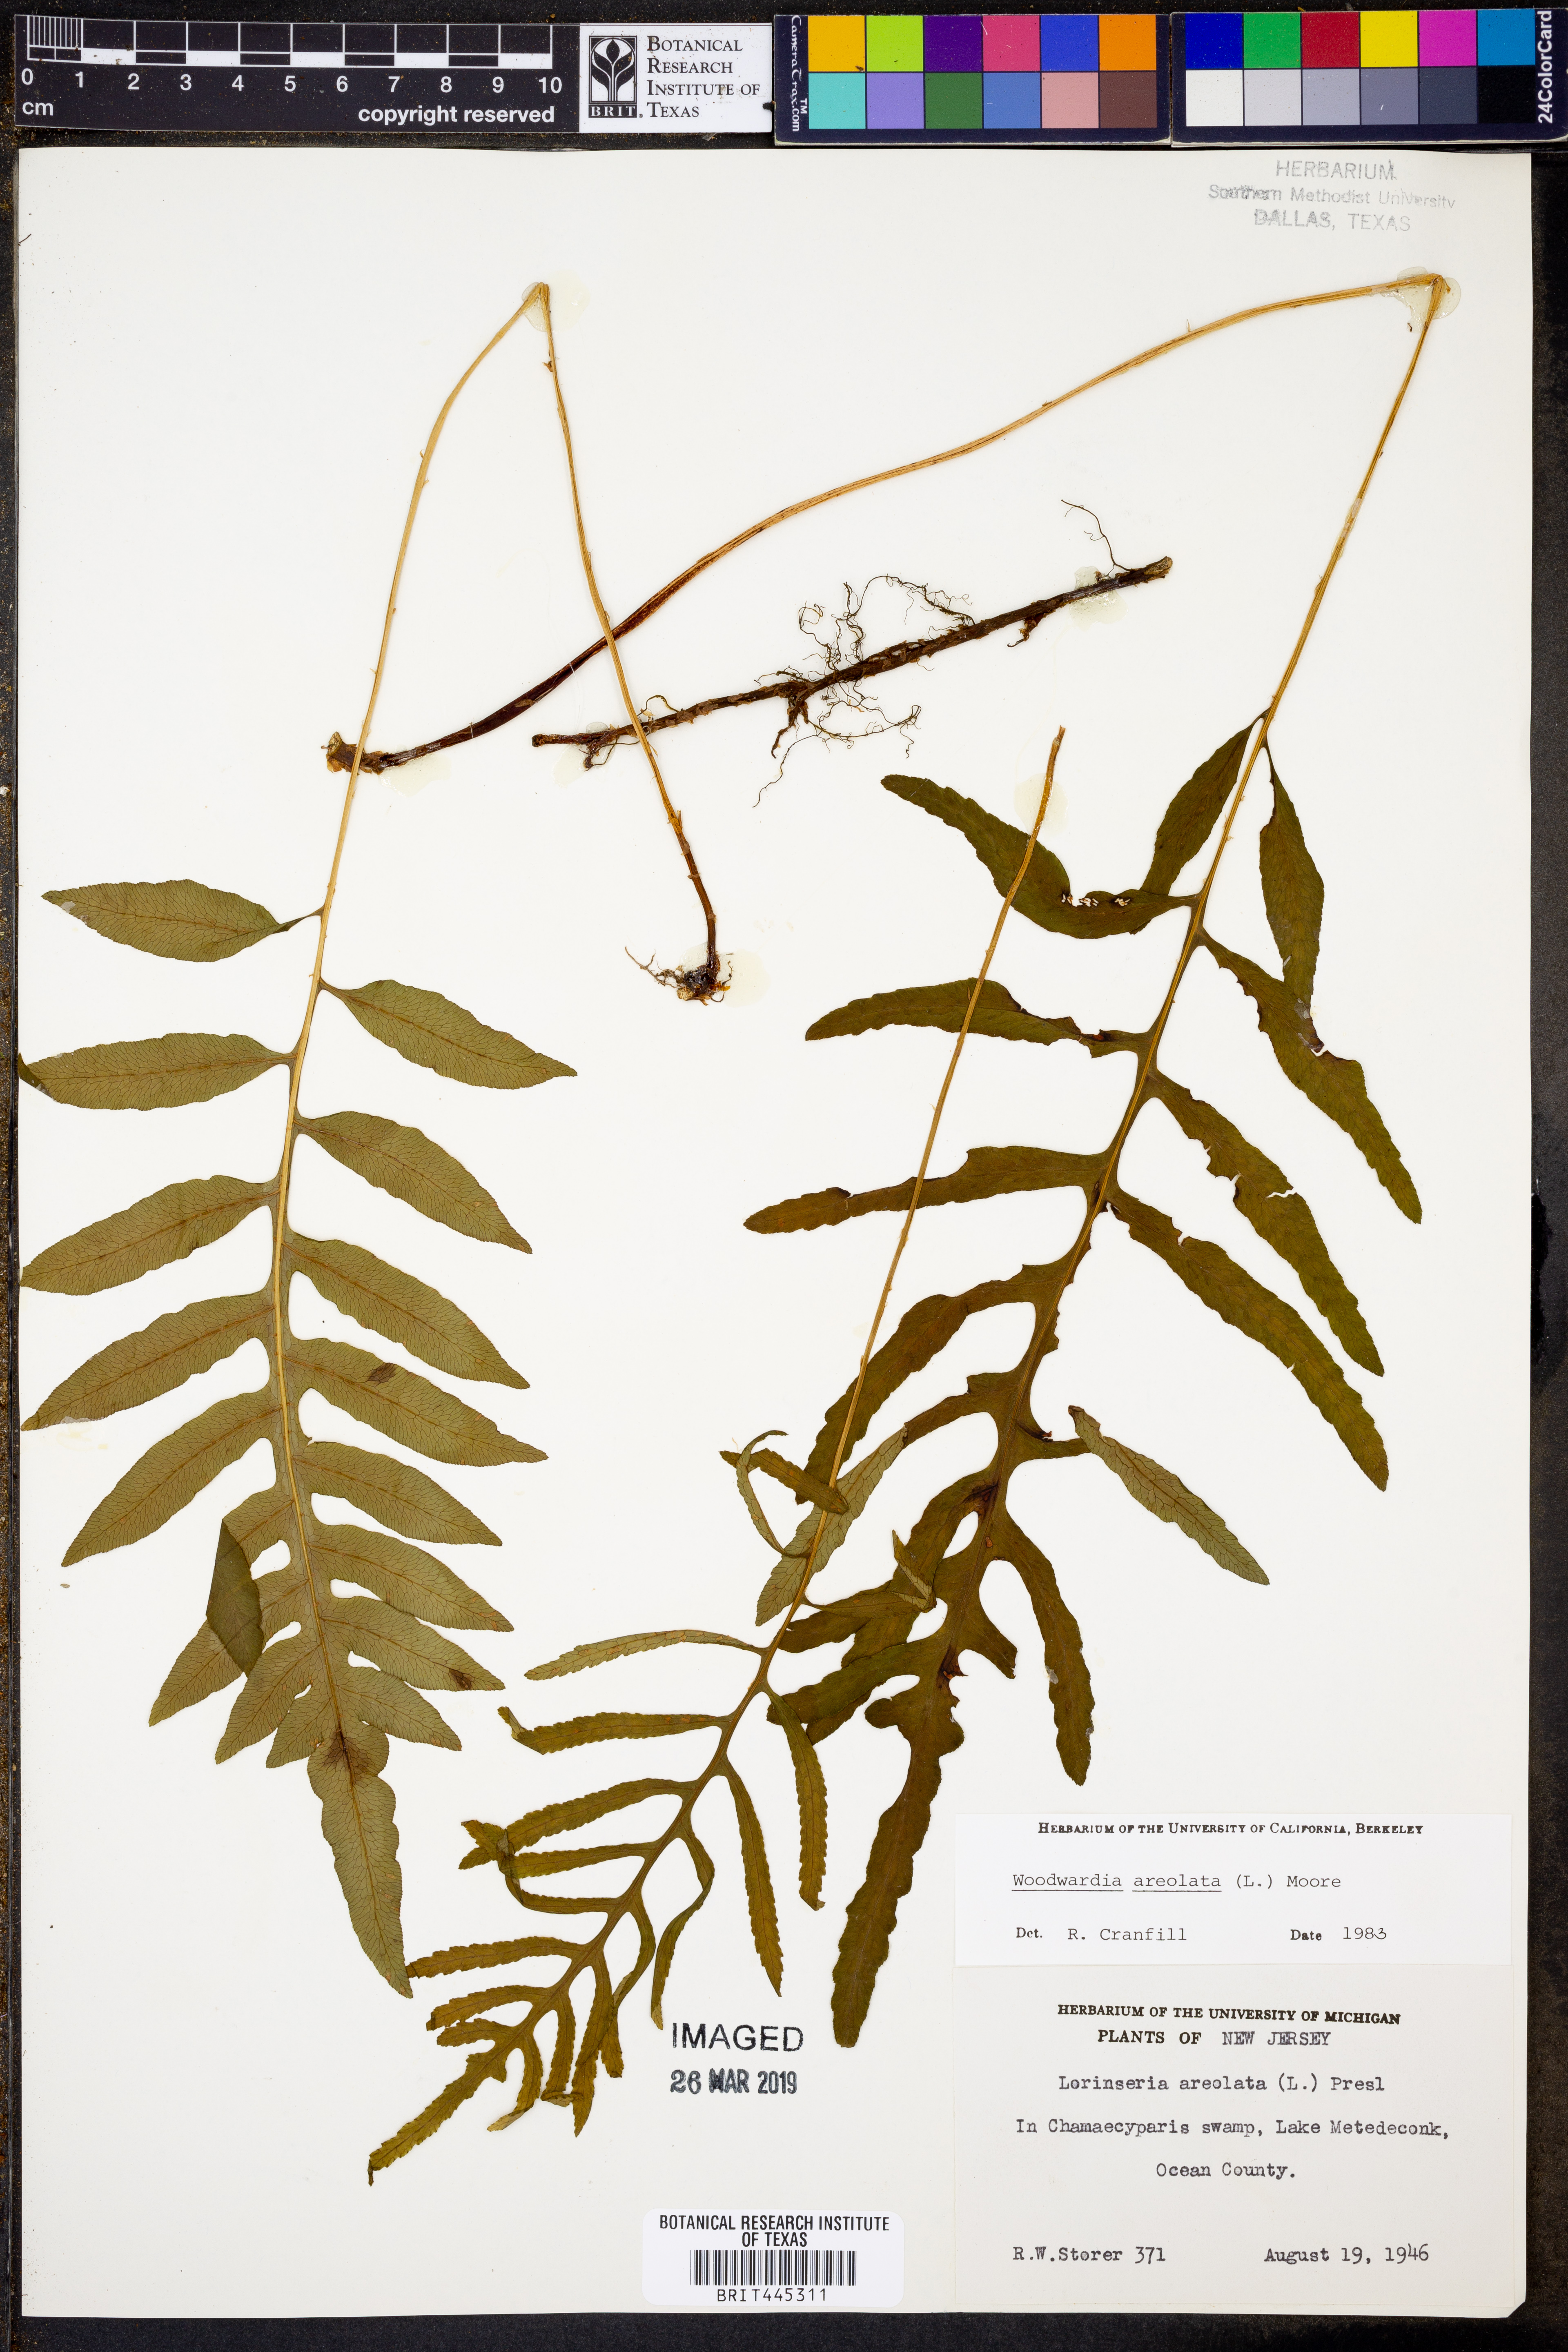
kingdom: Plantae
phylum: Tracheophyta
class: Polypodiopsida
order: Polypodiales
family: Blechnaceae
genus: Lorinseria
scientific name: Lorinseria areolata
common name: Dwarf chain fern
